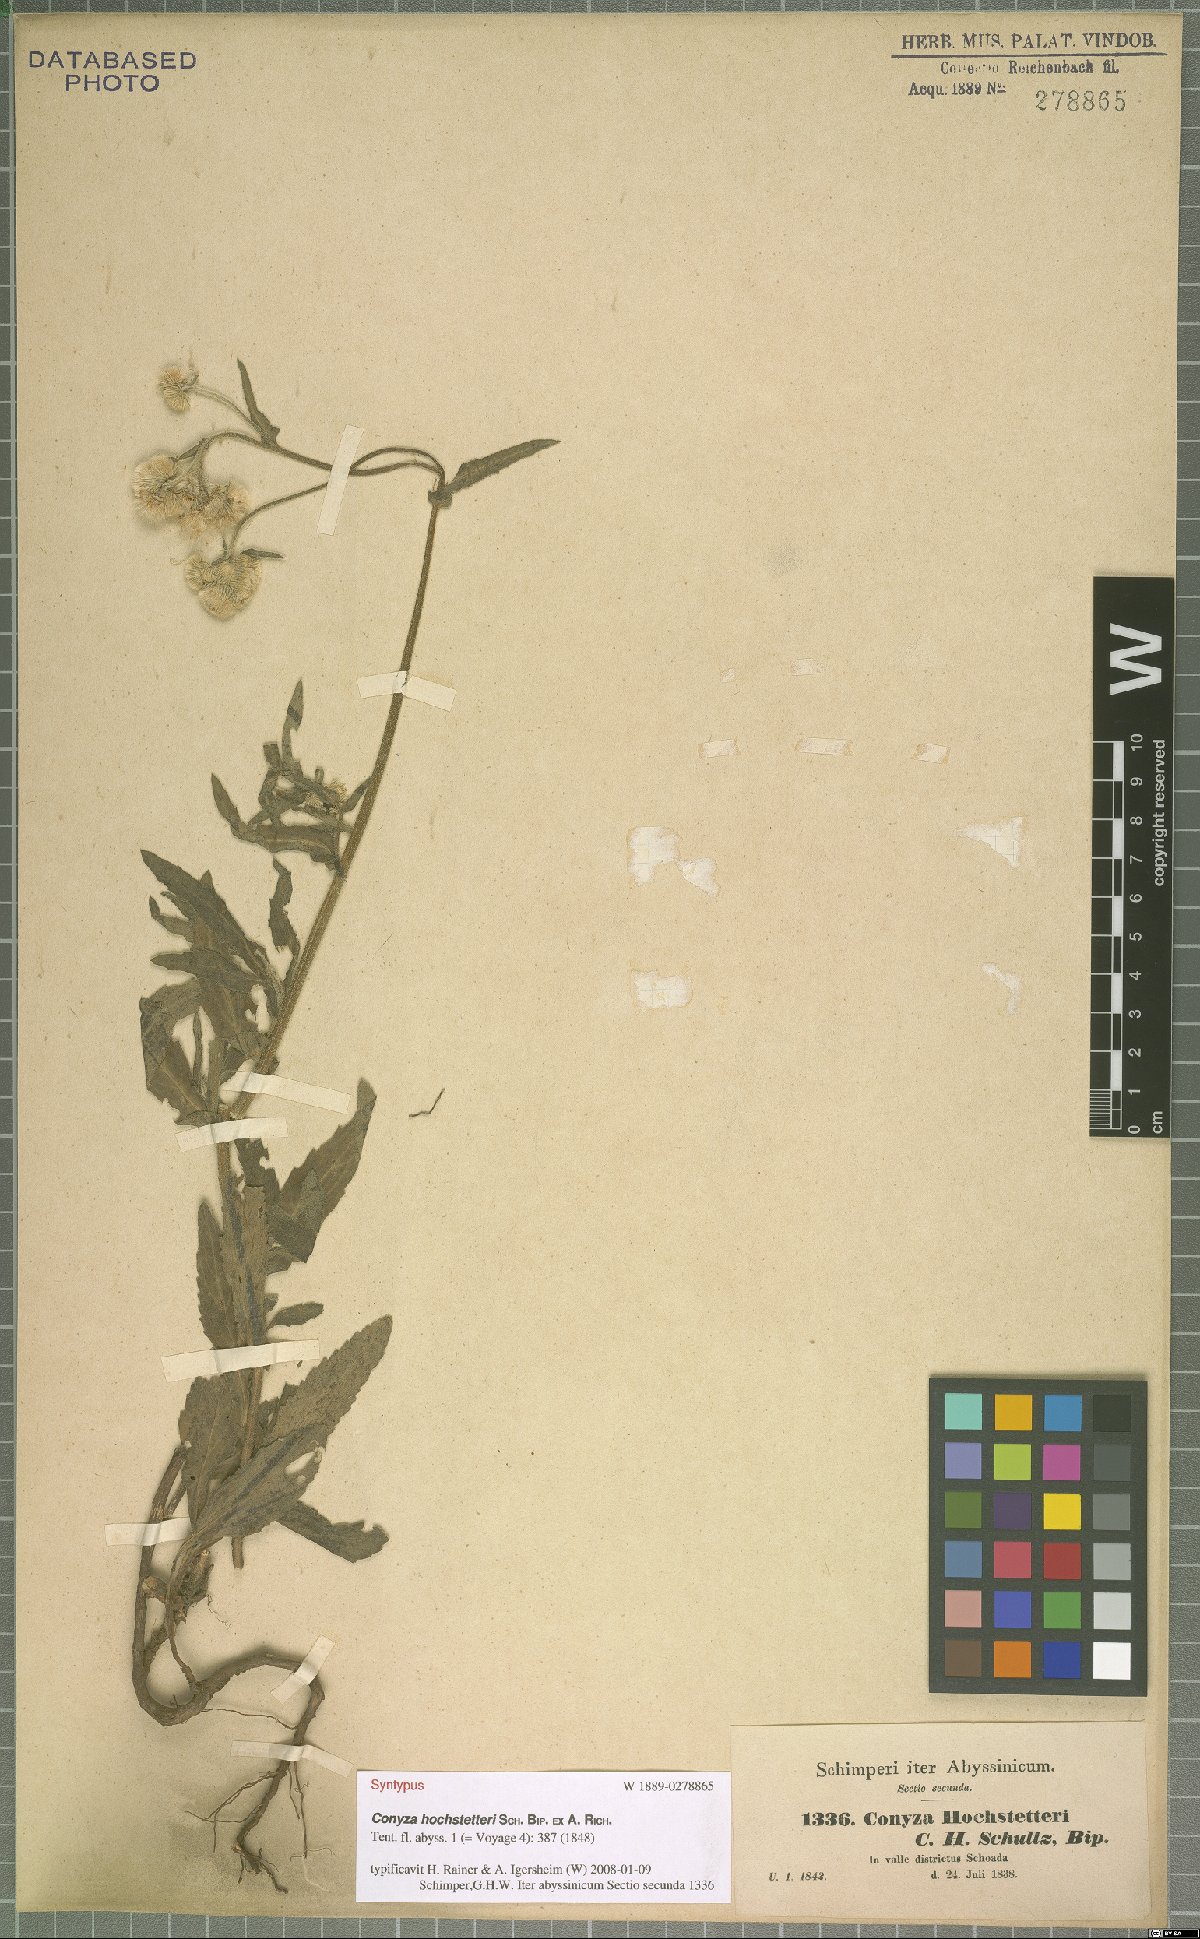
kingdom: Plantae
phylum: Tracheophyta
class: Magnoliopsida
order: Asterales
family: Asteraceae
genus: Eschenbachia
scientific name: Eschenbachia gouanii
